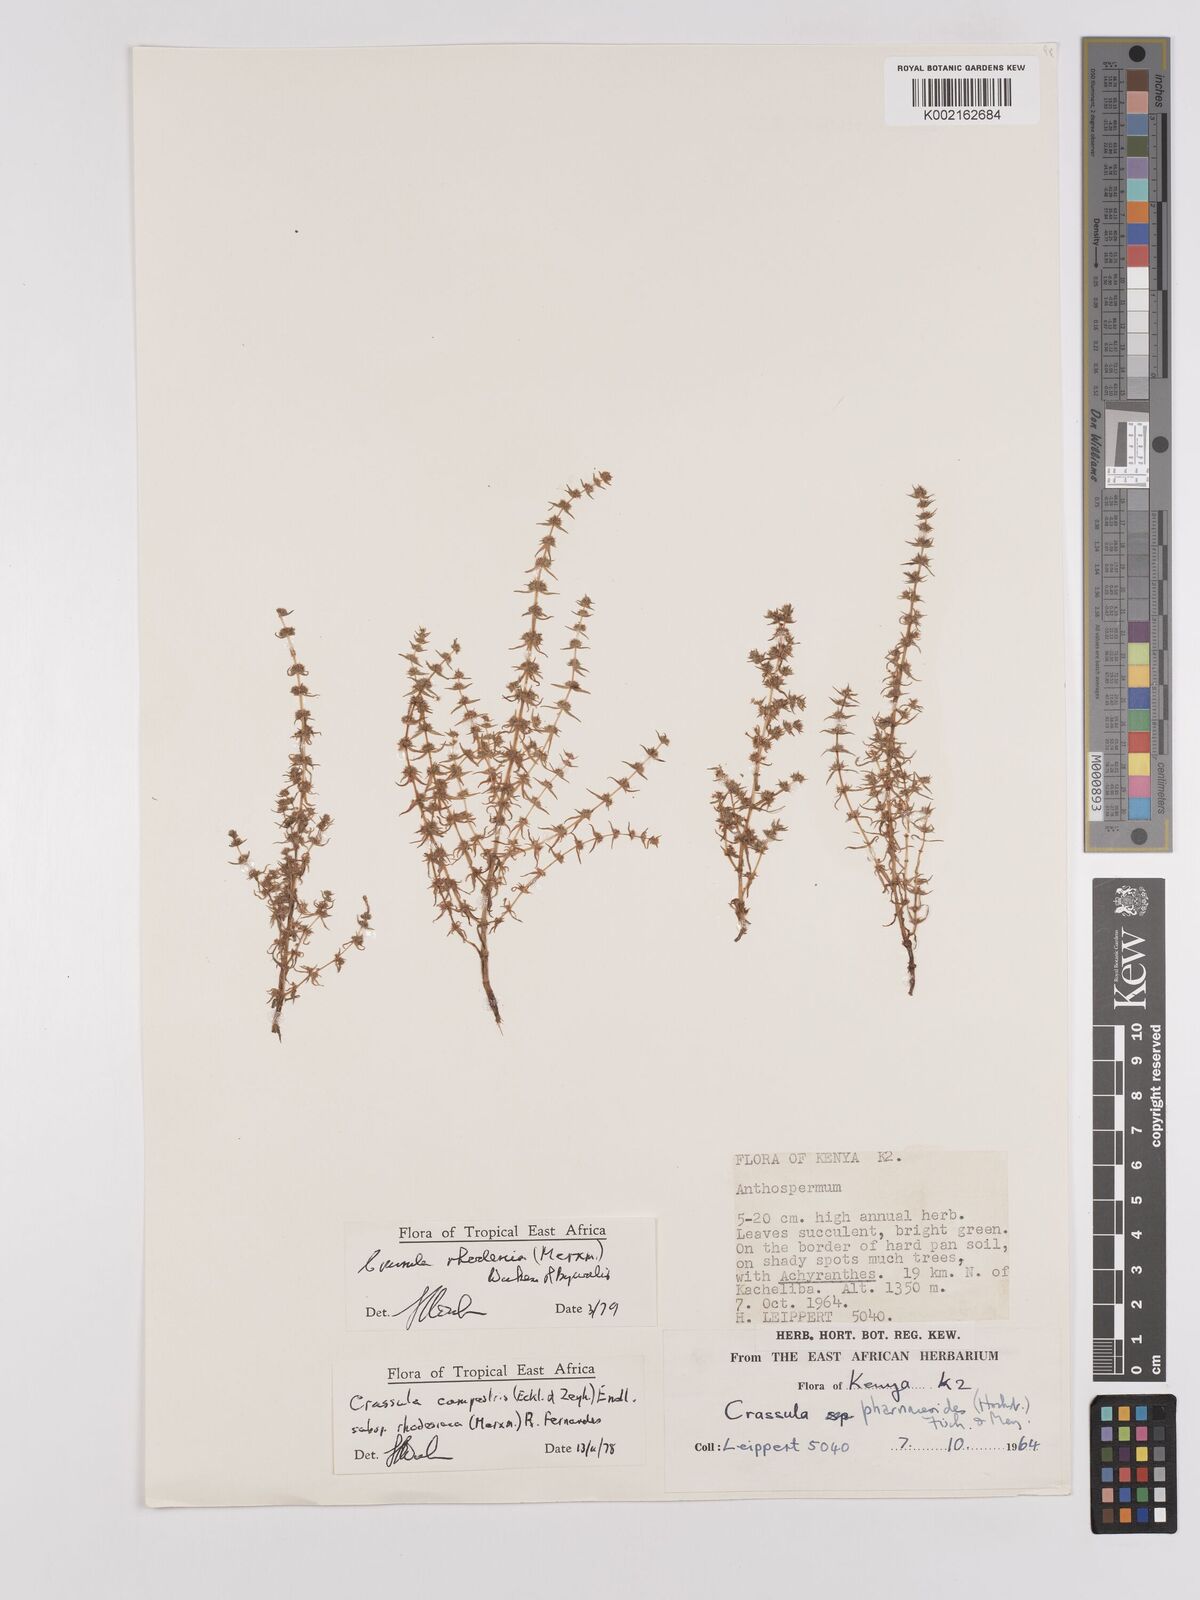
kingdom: Plantae
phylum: Tracheophyta
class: Magnoliopsida
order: Saxifragales
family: Crassulaceae
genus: Crassula
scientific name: Crassula rhodesica
